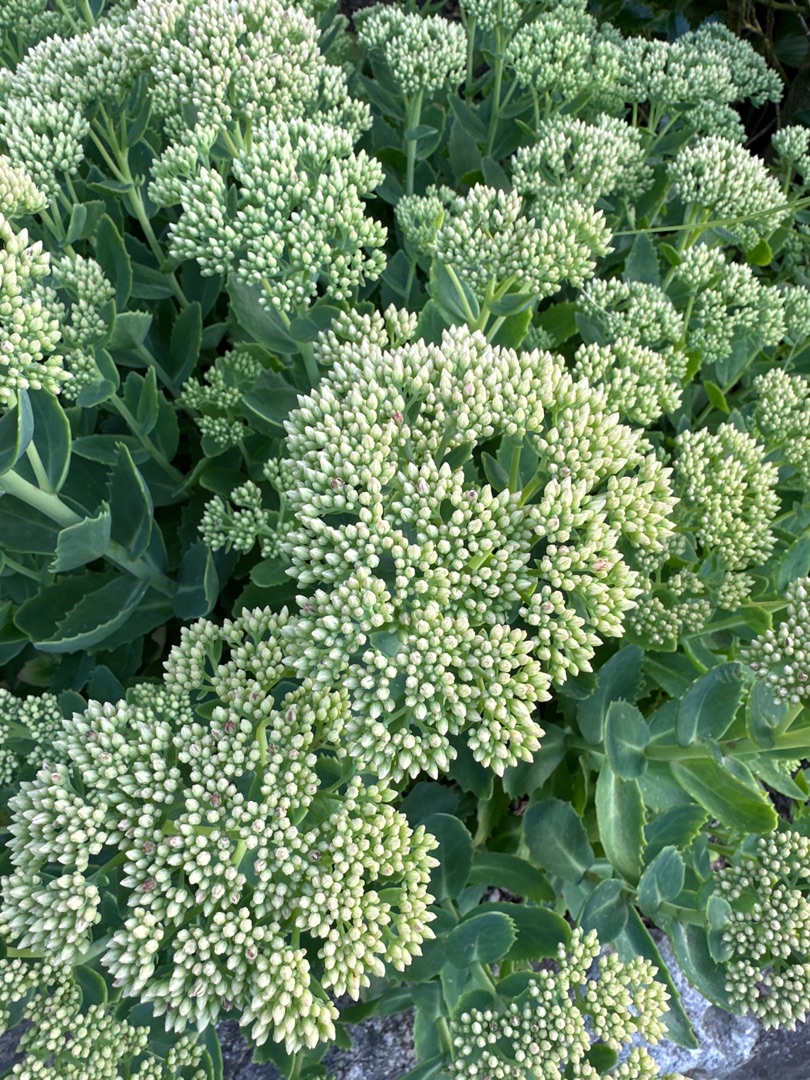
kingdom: Plantae
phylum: Tracheophyta
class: Magnoliopsida
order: Saxifragales
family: Crassulaceae
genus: Hylotelephium
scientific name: Hylotelephium
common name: Sankthansurtslægten
